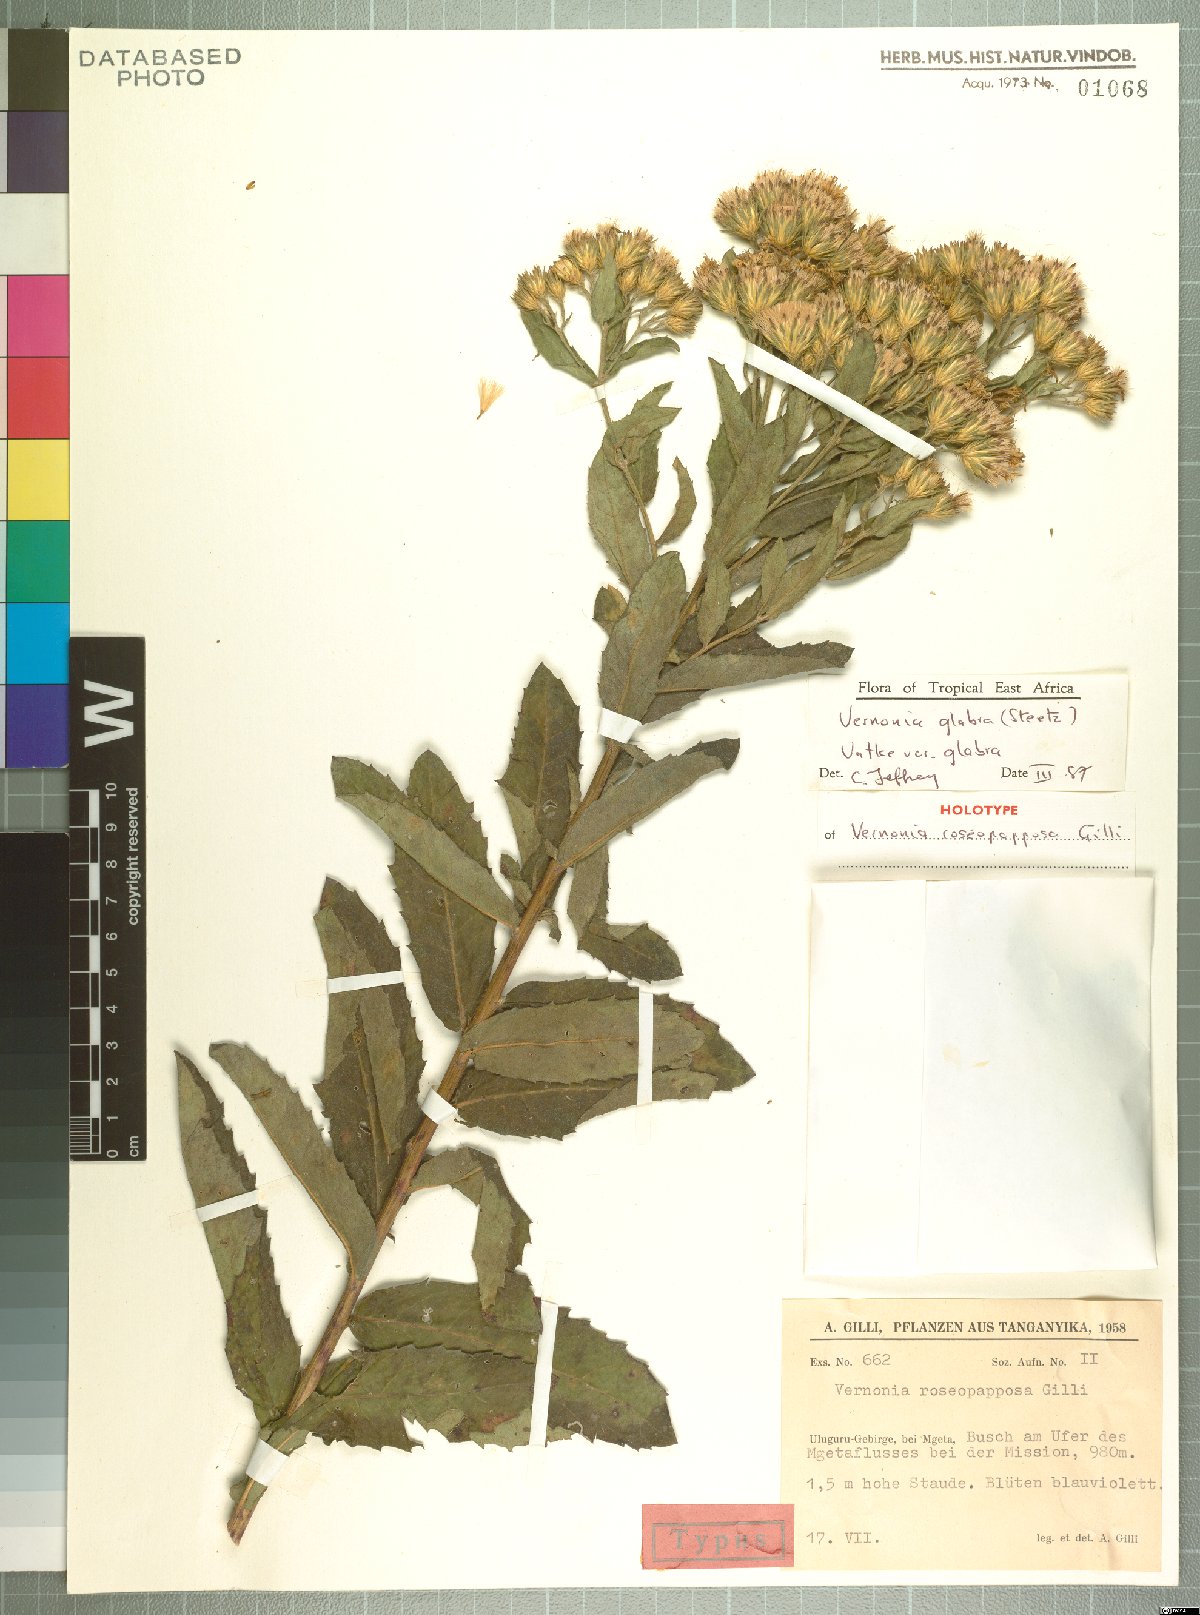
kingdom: Plantae
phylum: Tracheophyta
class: Magnoliopsida
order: Asterales
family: Asteraceae
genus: Linzia
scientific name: Linzia glabra
